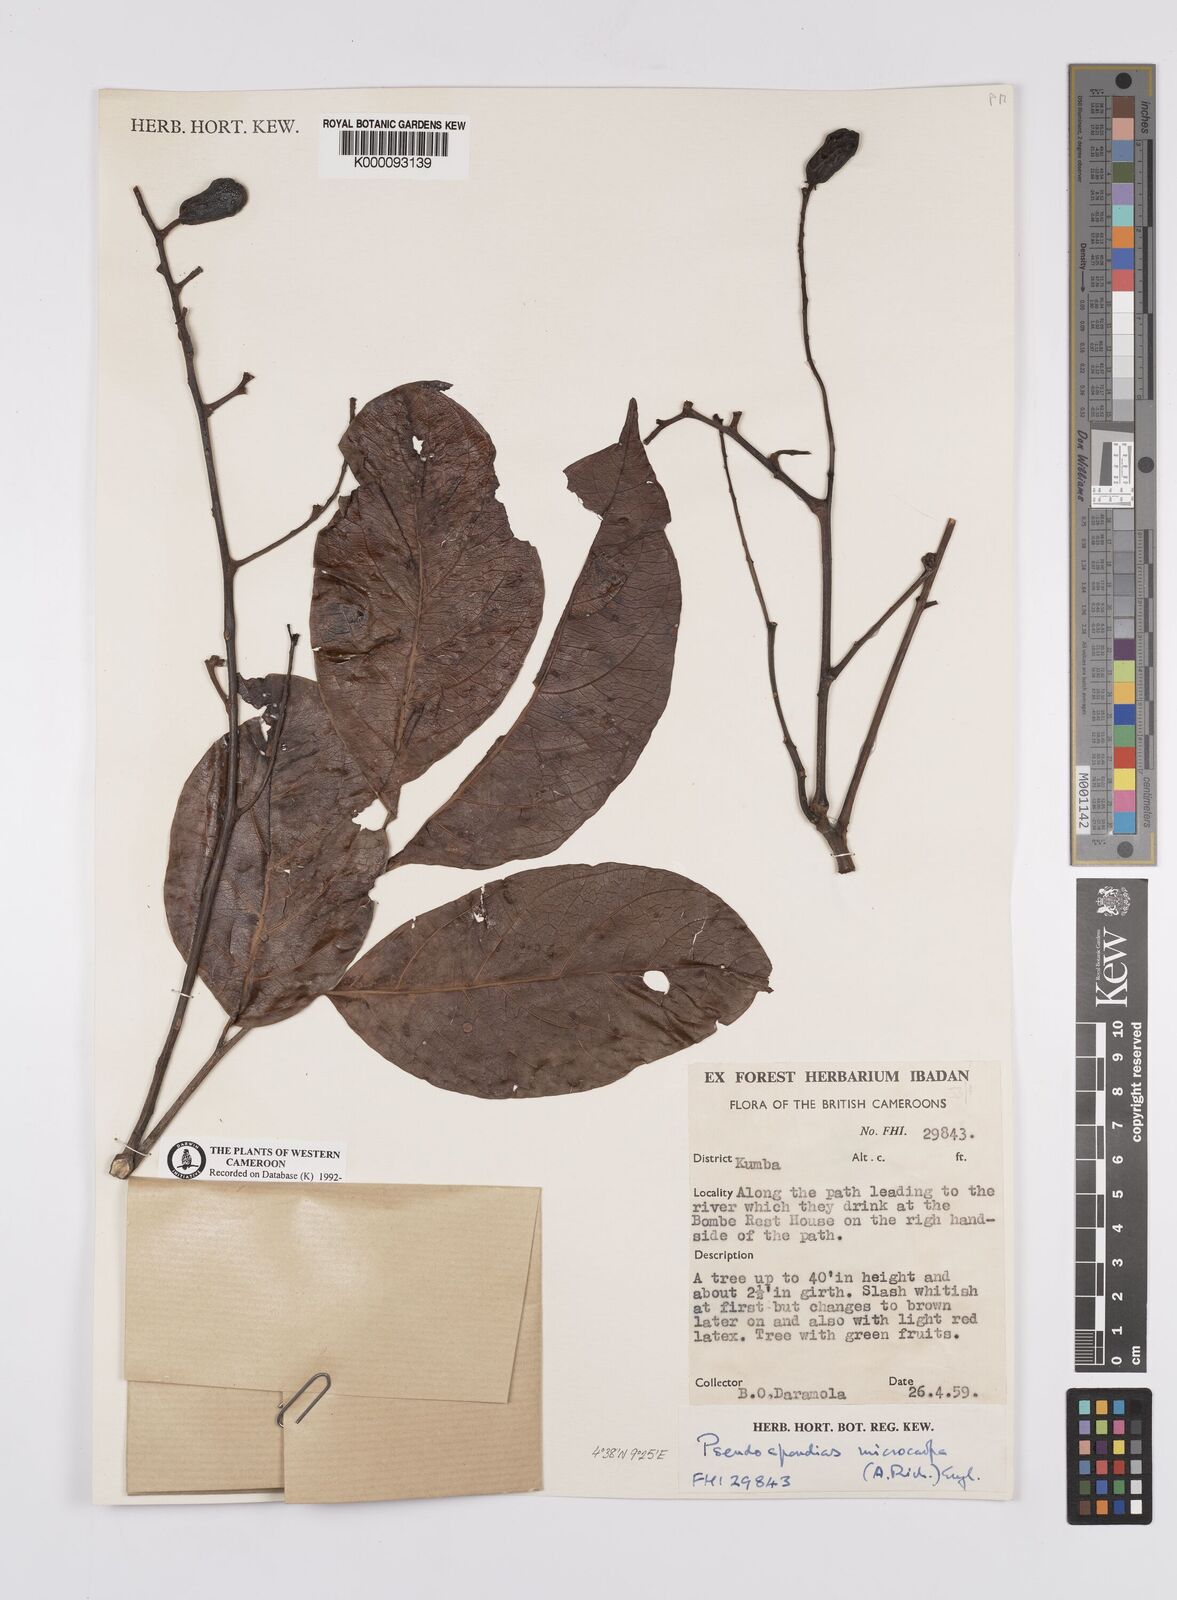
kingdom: Plantae
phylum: Tracheophyta
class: Magnoliopsida
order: Sapindales
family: Anacardiaceae
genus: Pseudospondias
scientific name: Pseudospondias microcarpa
